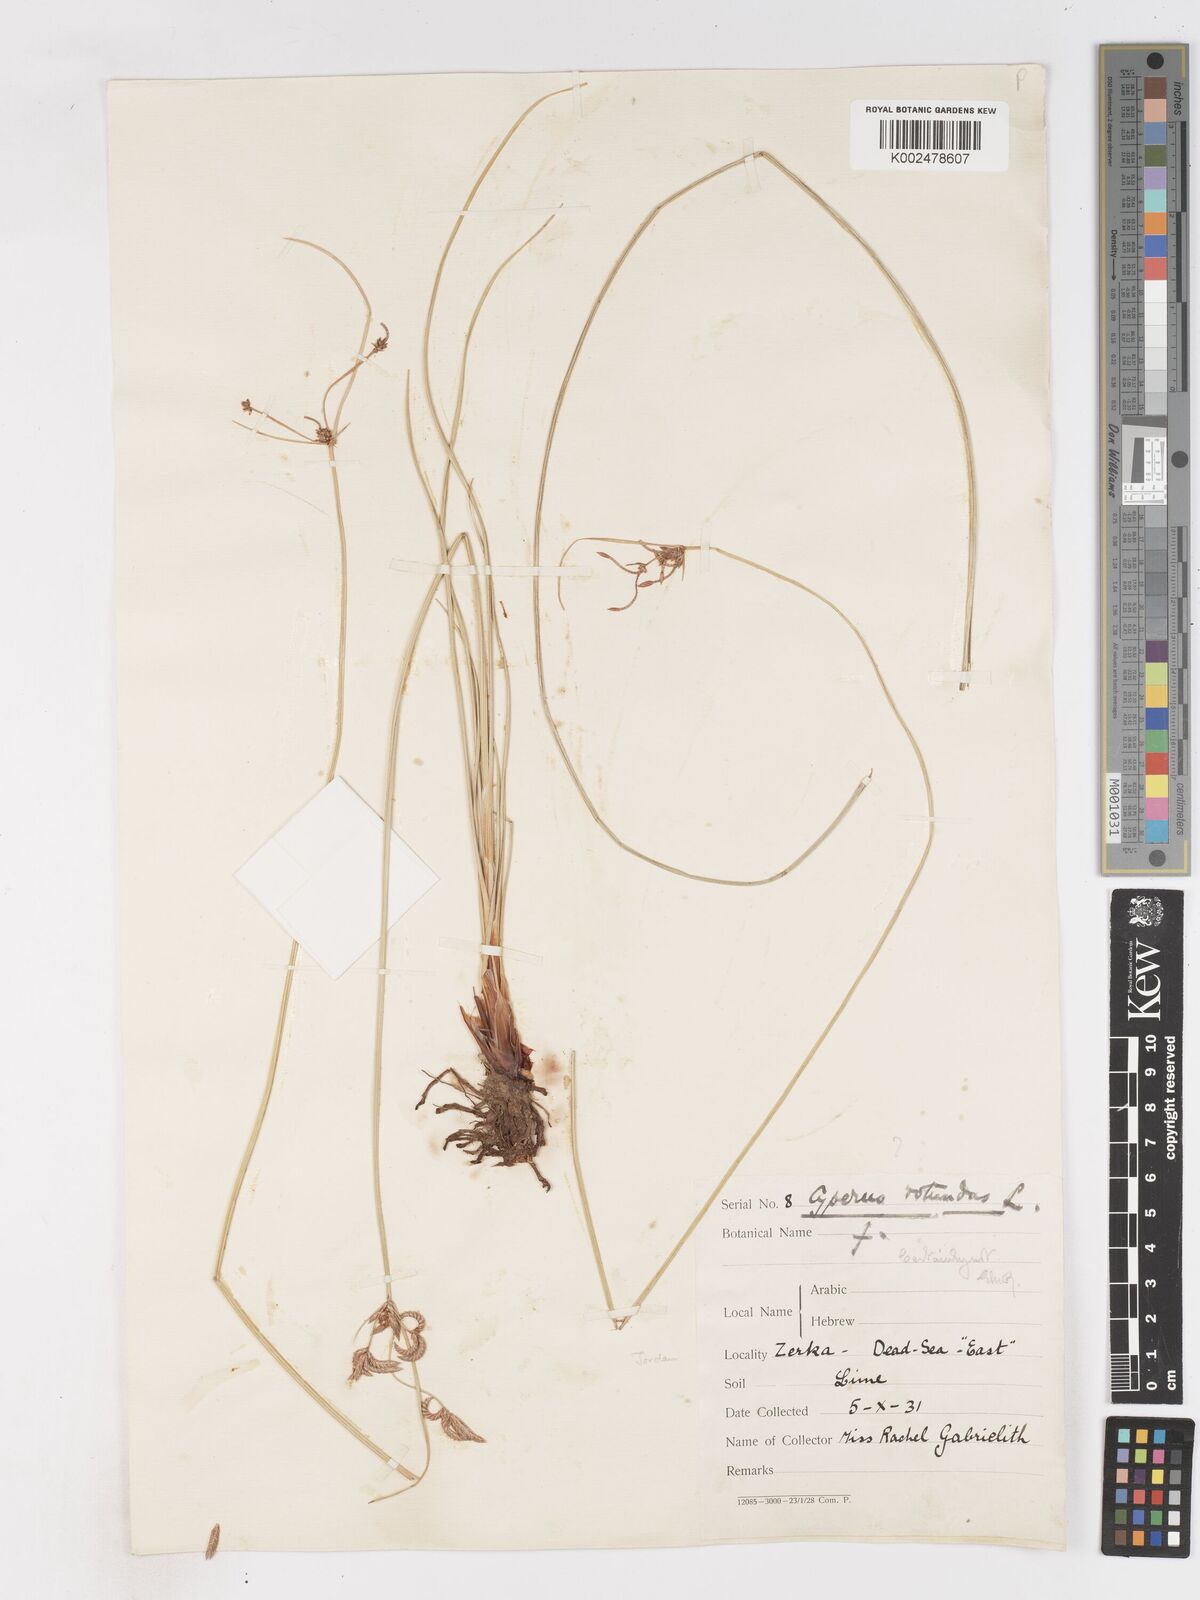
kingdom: Plantae
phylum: Tracheophyta
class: Liliopsida
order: Poales
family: Cyperaceae
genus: Cyperus
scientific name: Cyperus conglomeratus
